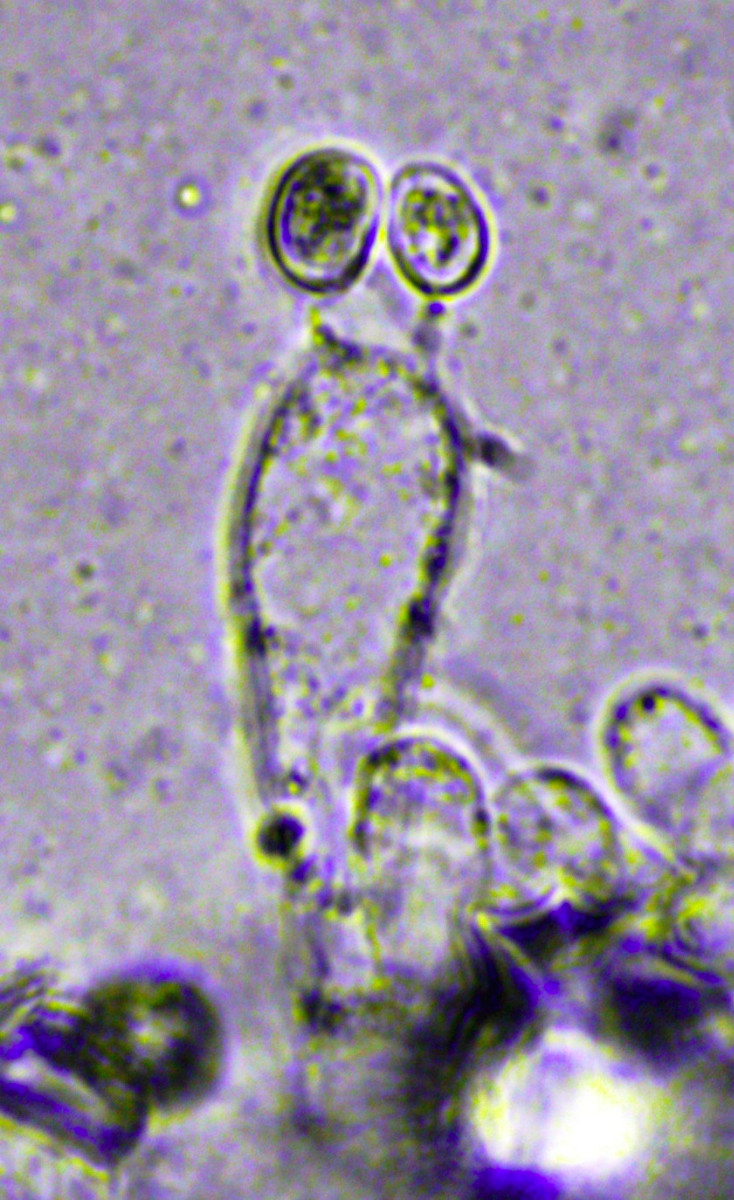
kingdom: Fungi
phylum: Basidiomycota
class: Agaricomycetes
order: Agaricales
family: Agaricaceae
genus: Agaricus
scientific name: Agaricus bisporus
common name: have-champignon
